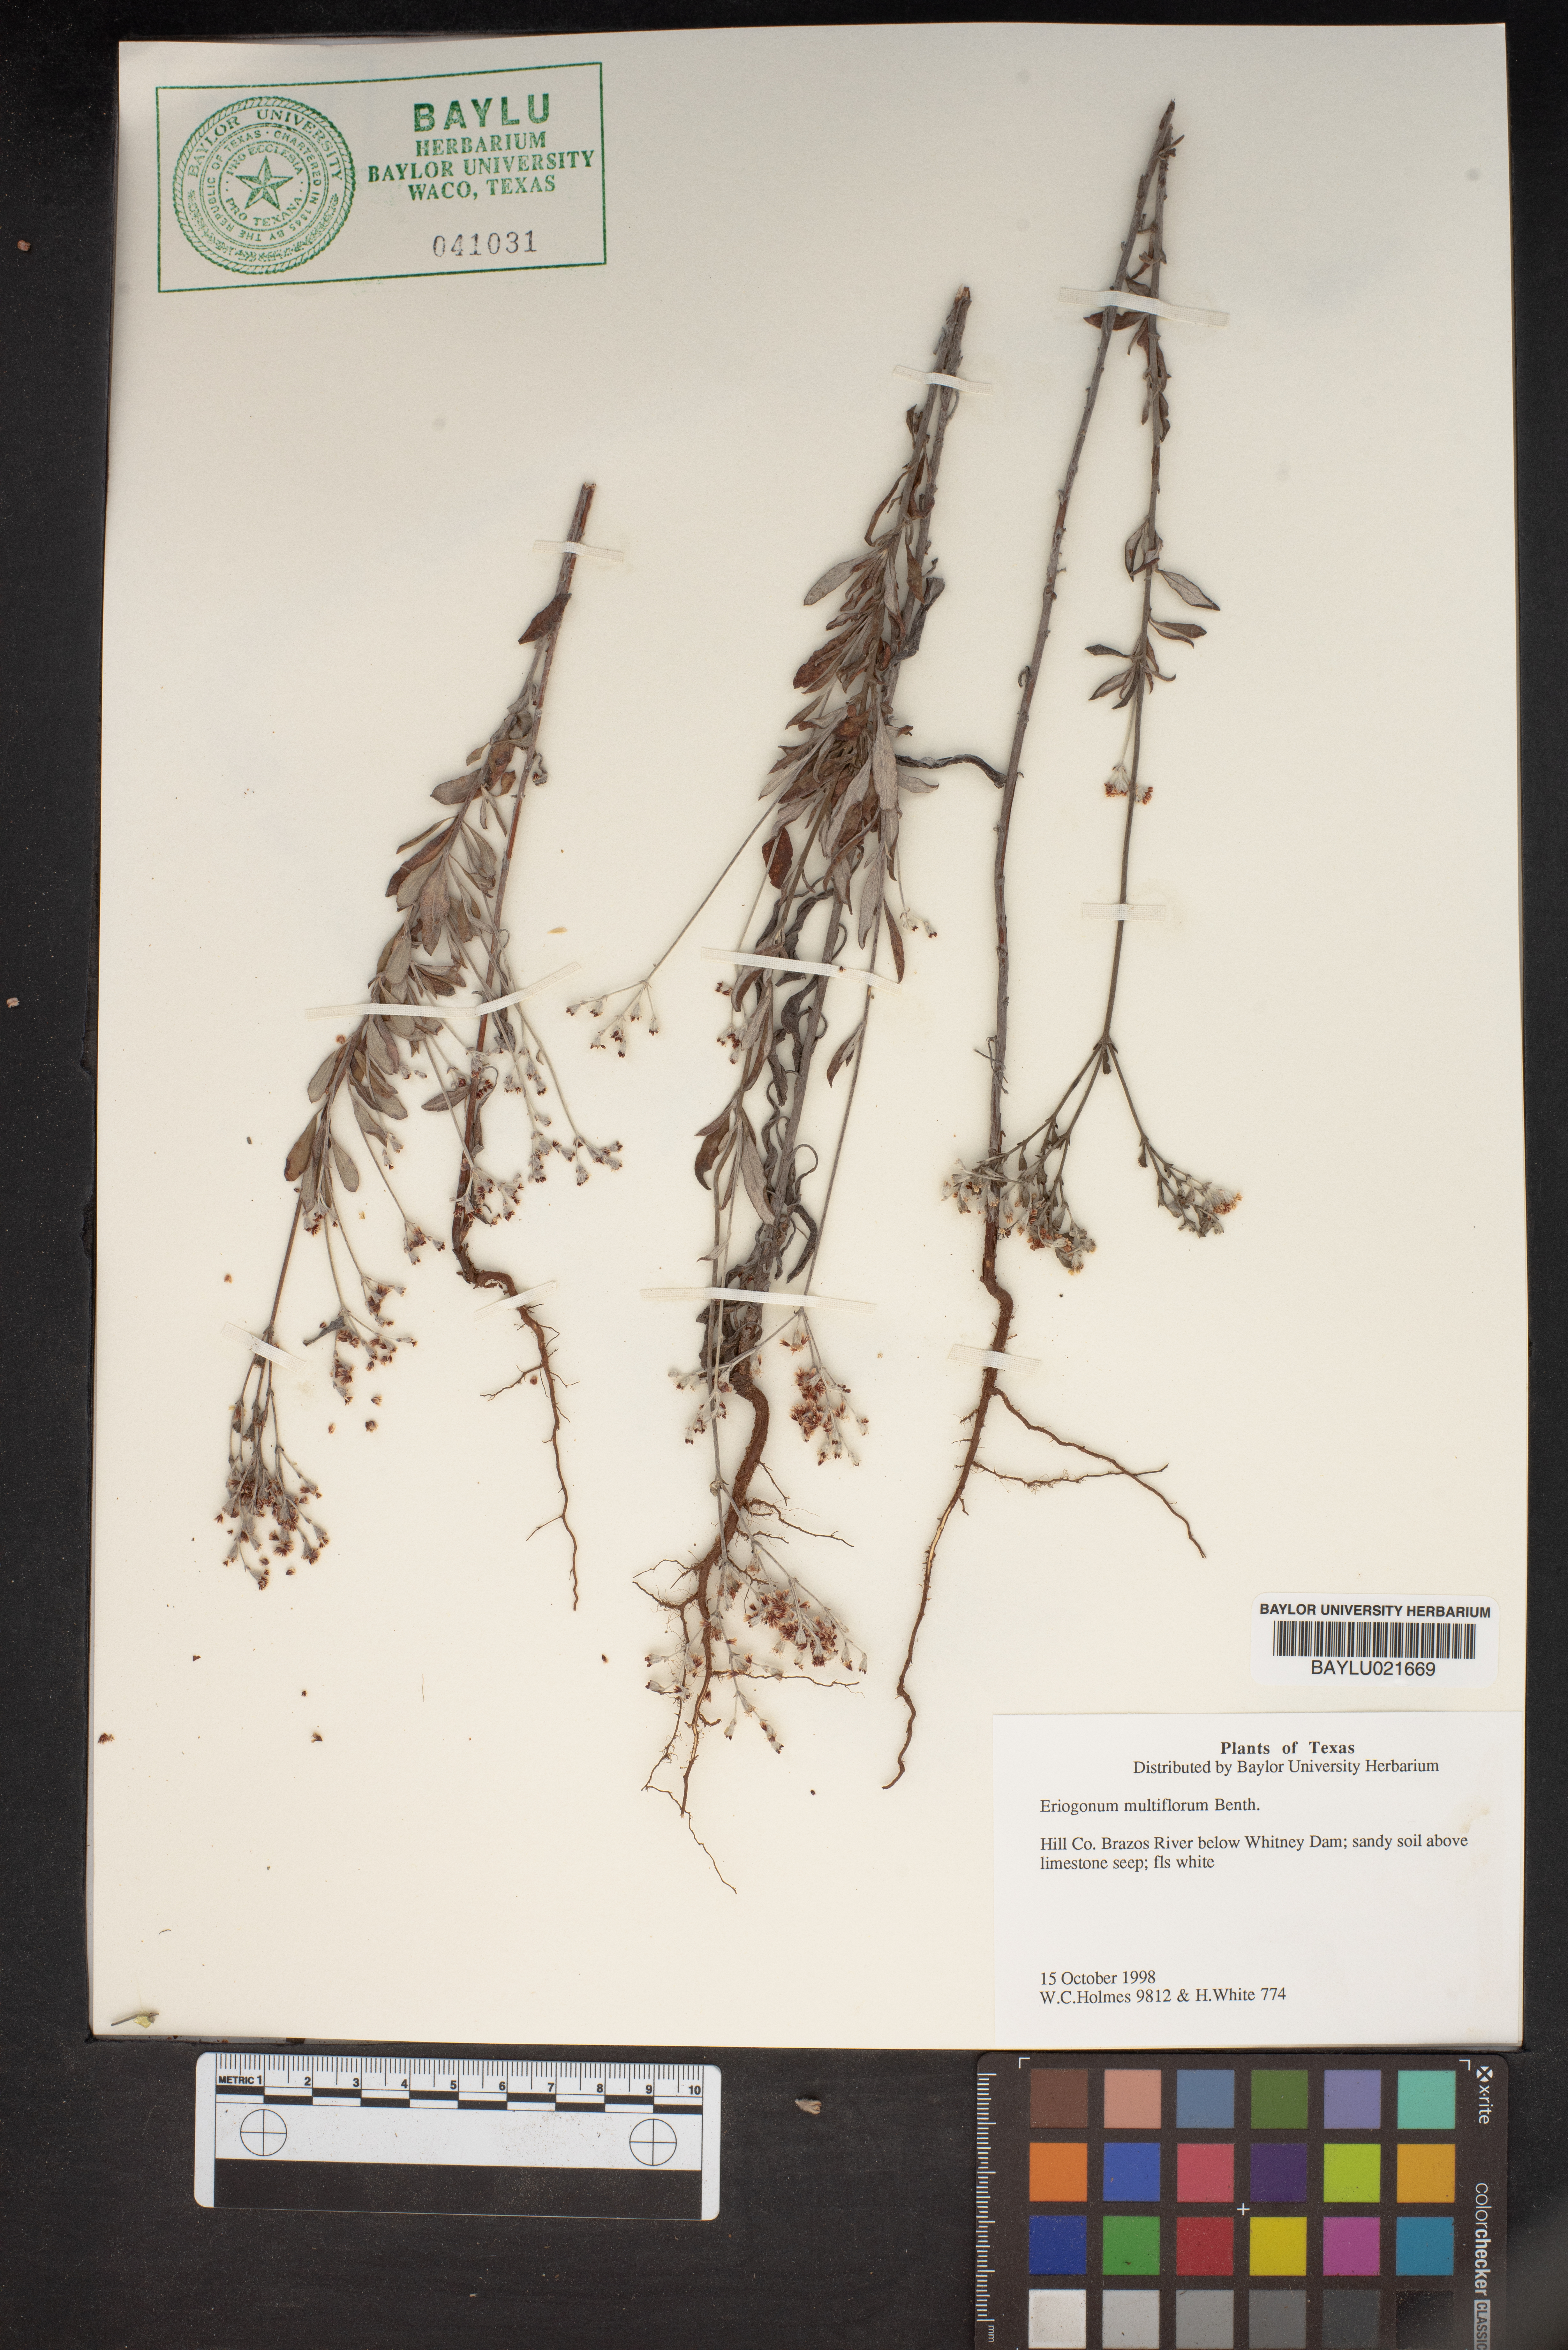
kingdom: Plantae
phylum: Tracheophyta
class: Magnoliopsida
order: Caryophyllales
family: Polygonaceae
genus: Eriogonum
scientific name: Eriogonum multiflorum
